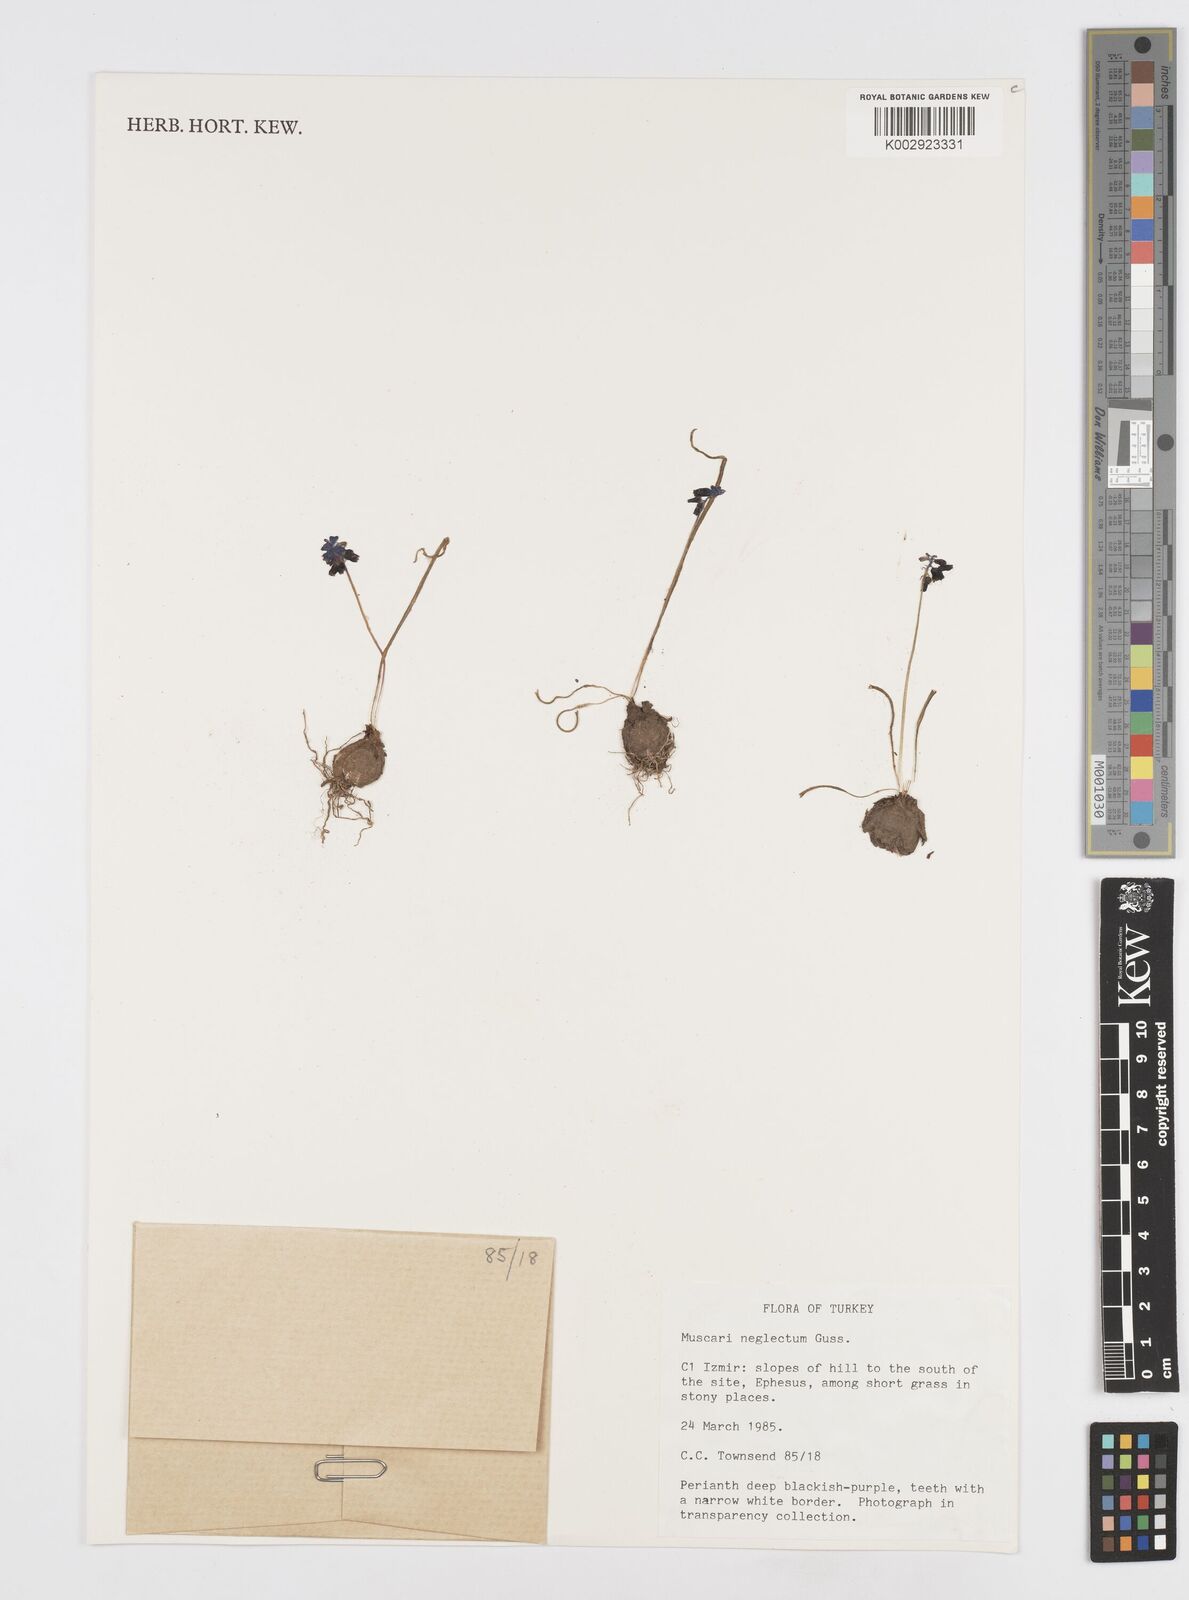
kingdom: Plantae
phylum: Tracheophyta
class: Liliopsida
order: Asparagales
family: Asparagaceae
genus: Muscari
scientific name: Muscari neglectum
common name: Grape-hyacinth
